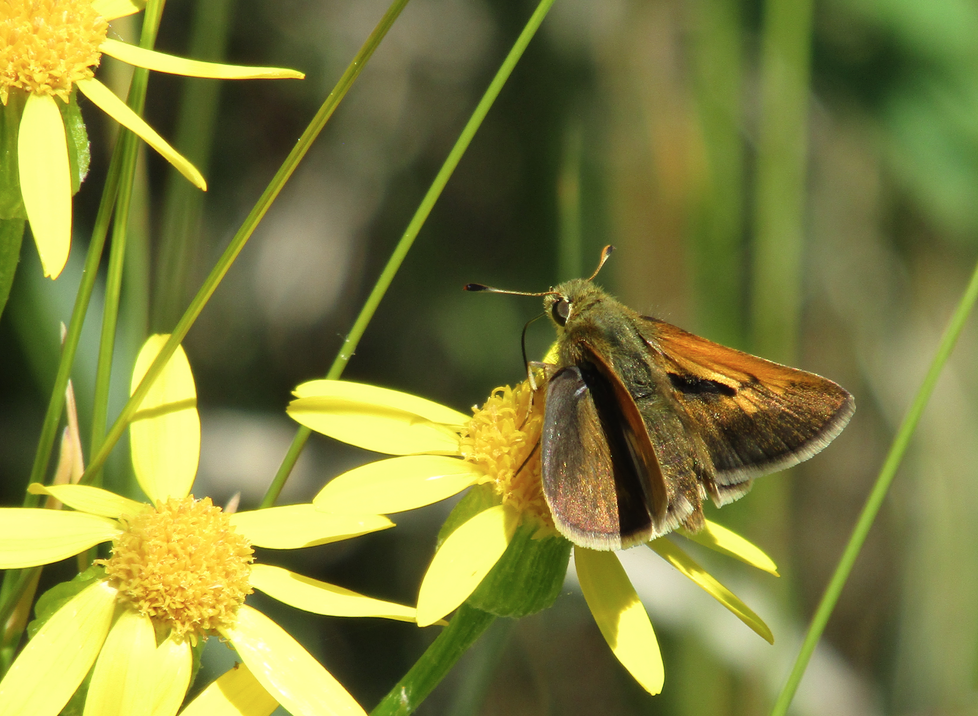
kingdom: Animalia
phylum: Arthropoda
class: Insecta
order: Lepidoptera
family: Hesperiidae
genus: Ochlodes
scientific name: Ochlodes sylvanoides
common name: Woodland Skipper
